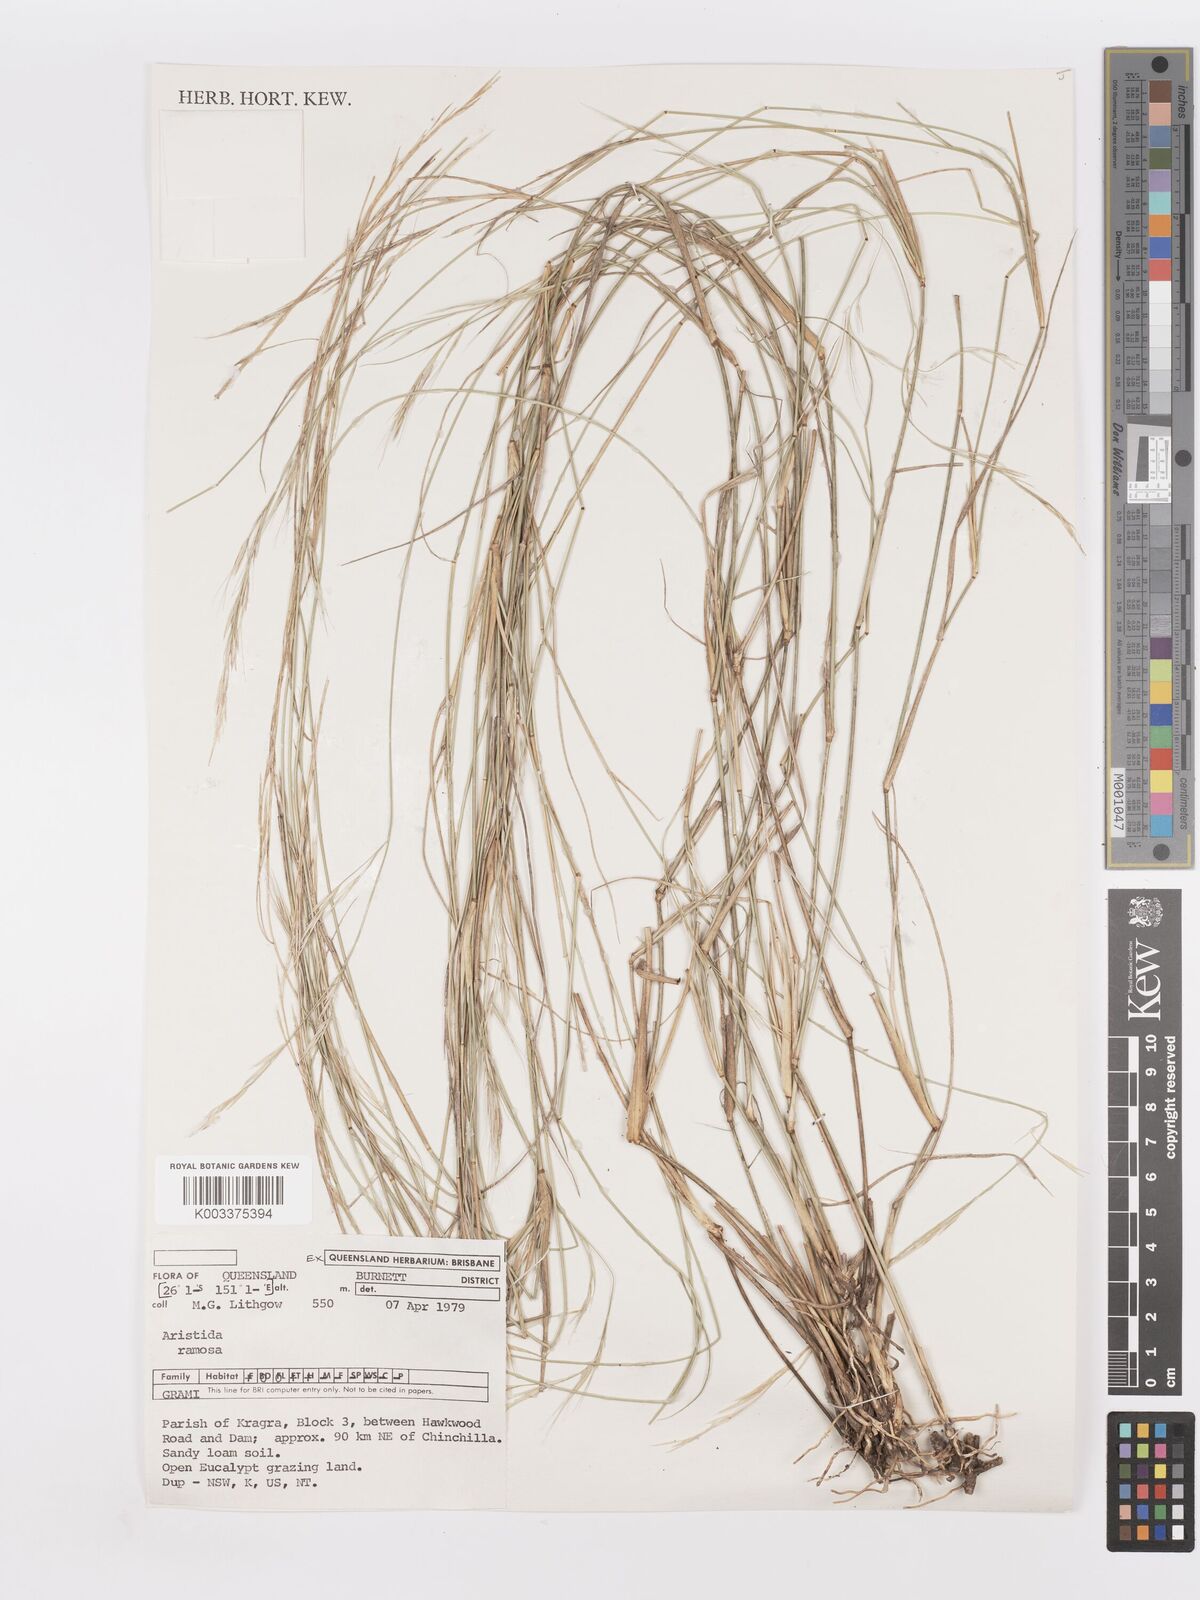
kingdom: Plantae
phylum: Tracheophyta
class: Liliopsida
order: Poales
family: Poaceae
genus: Aristida
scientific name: Aristida ramosa
